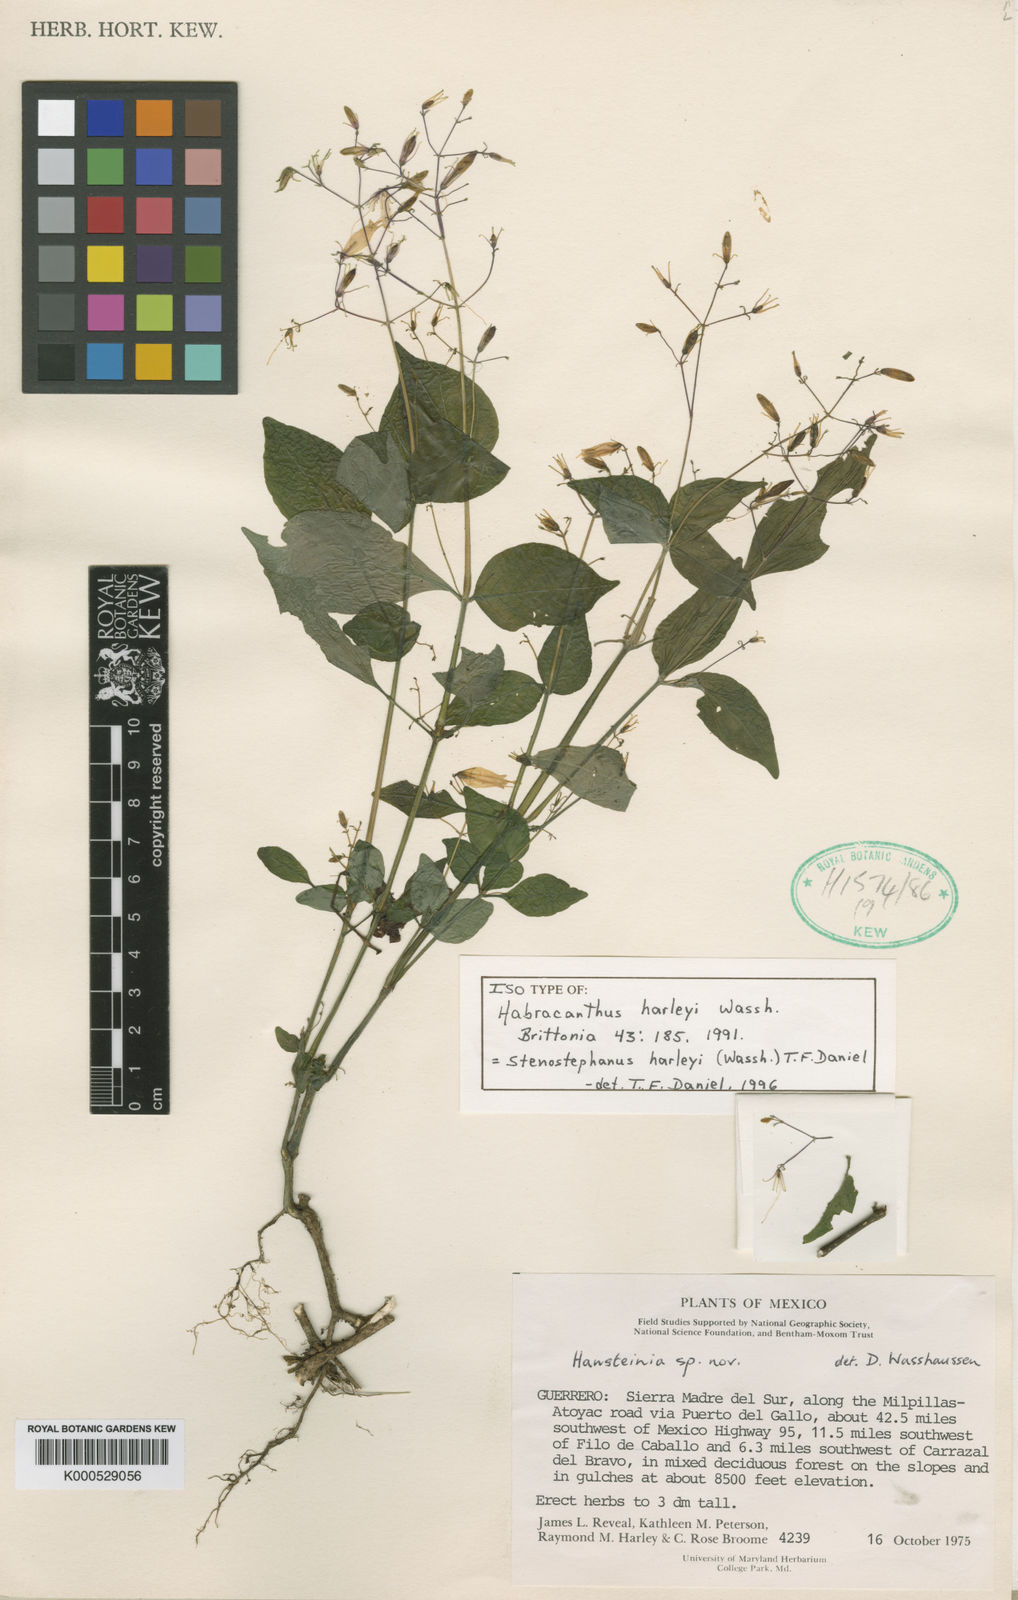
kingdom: Plantae
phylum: Tracheophyta
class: Magnoliopsida
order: Lamiales
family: Acanthaceae
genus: Stenostephanus
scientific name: Stenostephanus harleyi
